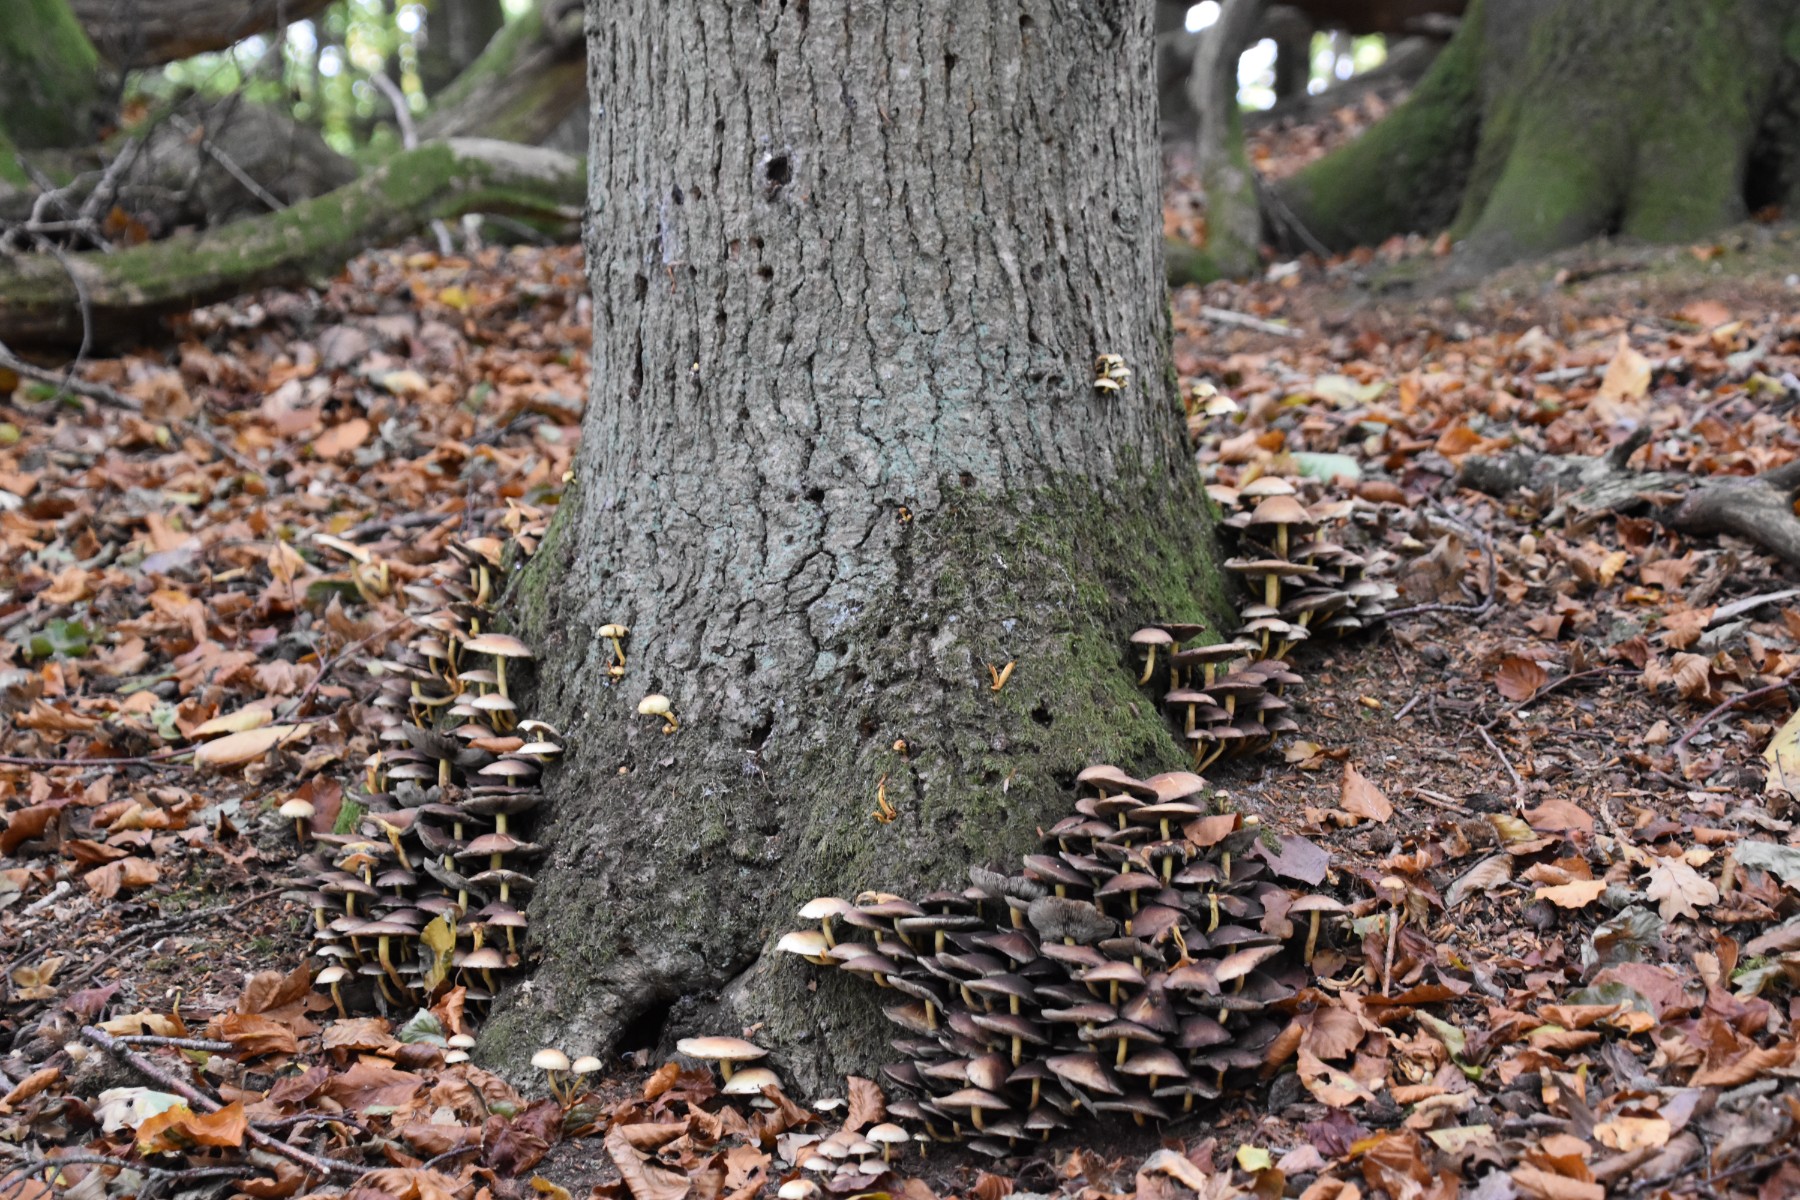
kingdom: Fungi
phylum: Basidiomycota
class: Agaricomycetes
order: Agaricales
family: Strophariaceae
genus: Hypholoma
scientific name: Hypholoma fasciculare
